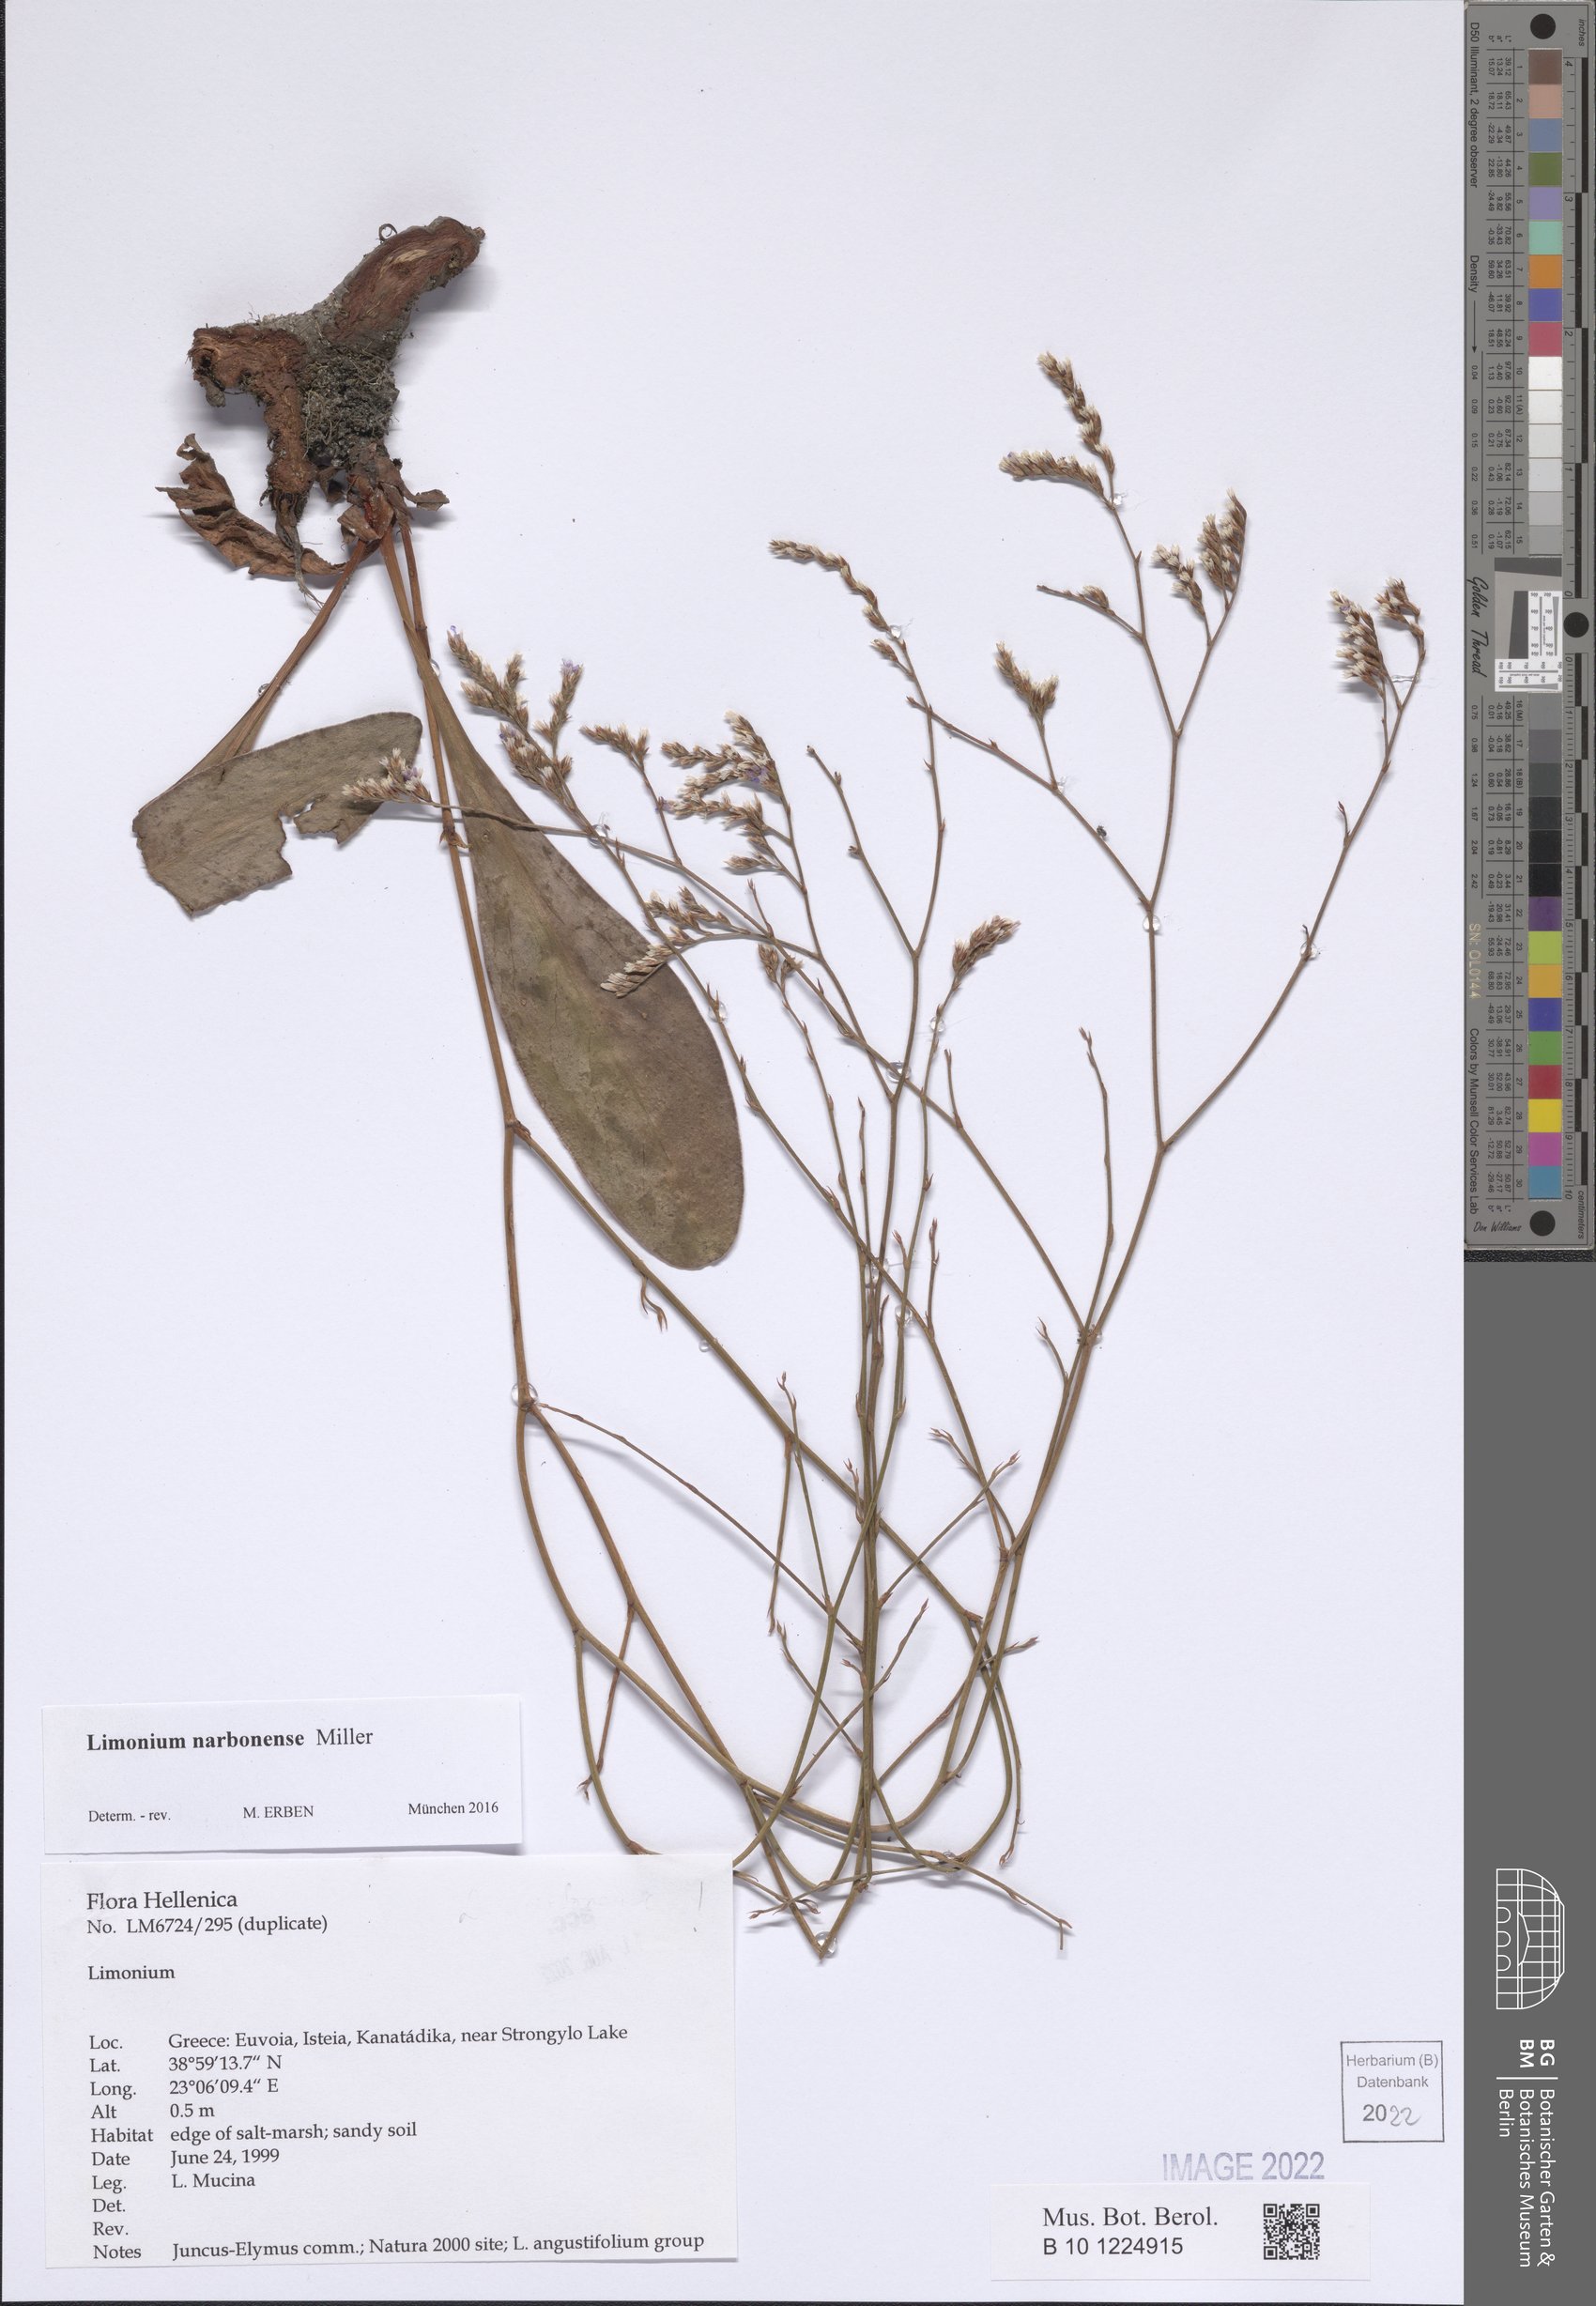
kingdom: Plantae
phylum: Tracheophyta
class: Magnoliopsida
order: Caryophyllales
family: Plumbaginaceae
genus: Limonium
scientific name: Limonium narbonense
